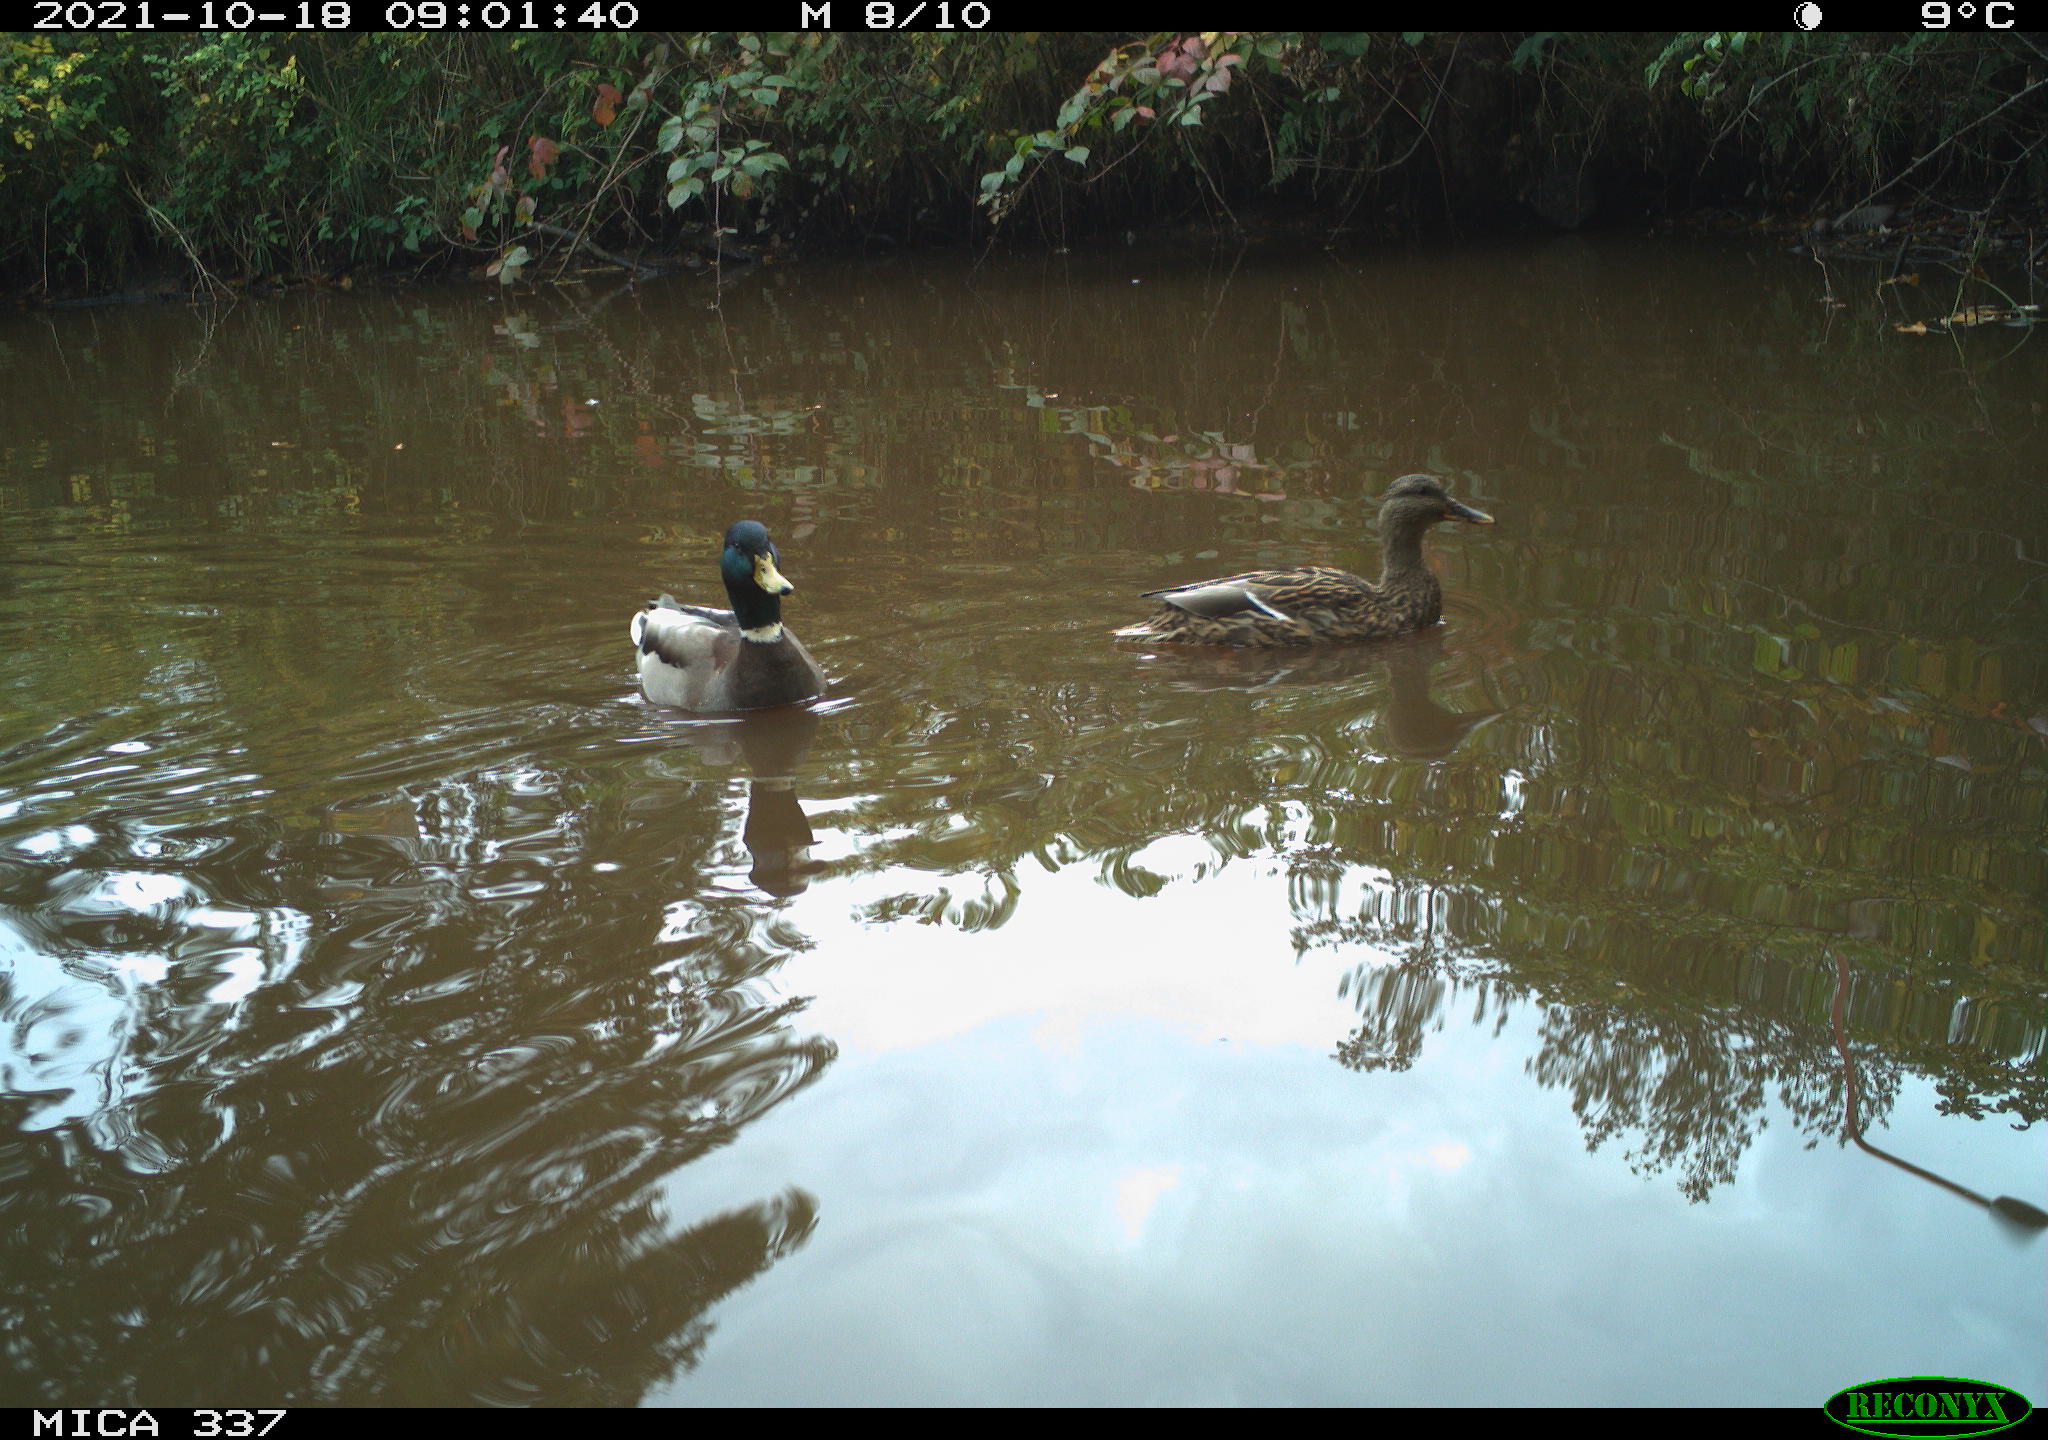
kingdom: Animalia
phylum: Chordata
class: Aves
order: Anseriformes
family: Anatidae
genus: Anas
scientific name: Anas platyrhynchos
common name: Mallard
